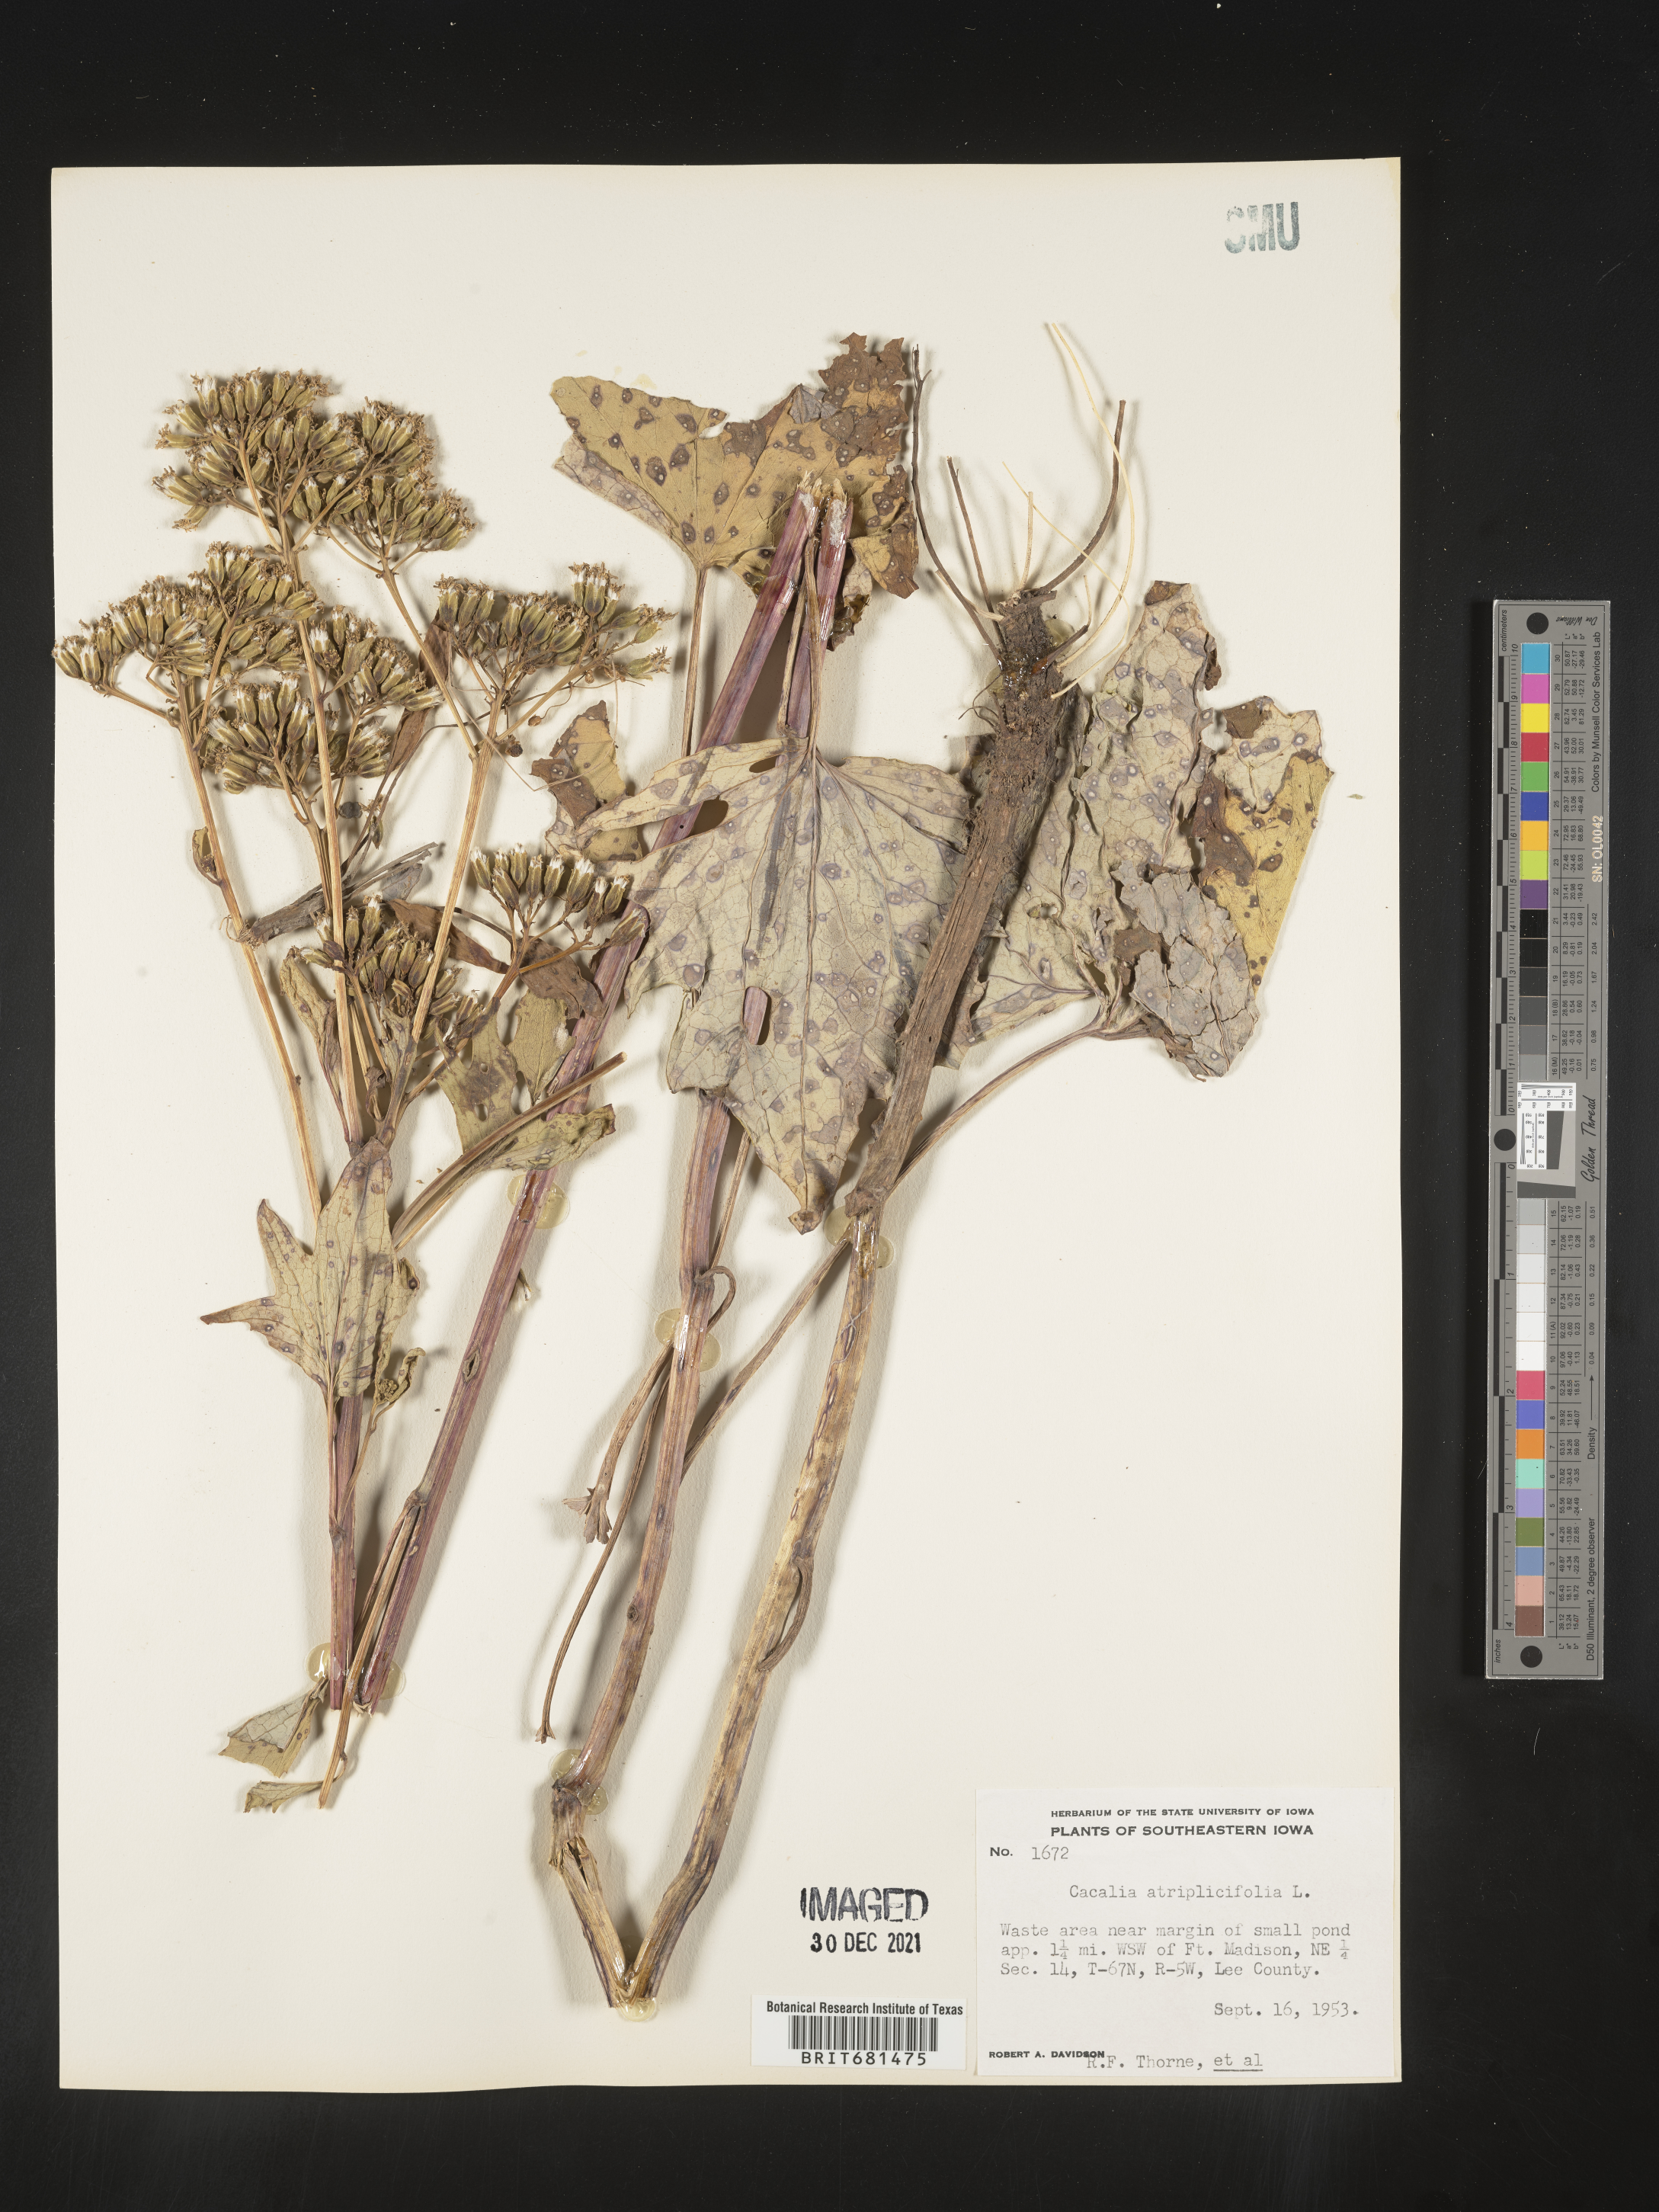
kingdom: Plantae
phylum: Tracheophyta
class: Magnoliopsida
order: Asterales
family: Asteraceae
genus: Arnoglossum
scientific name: Arnoglossum atriplicifolium
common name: Pale indian-plantain
